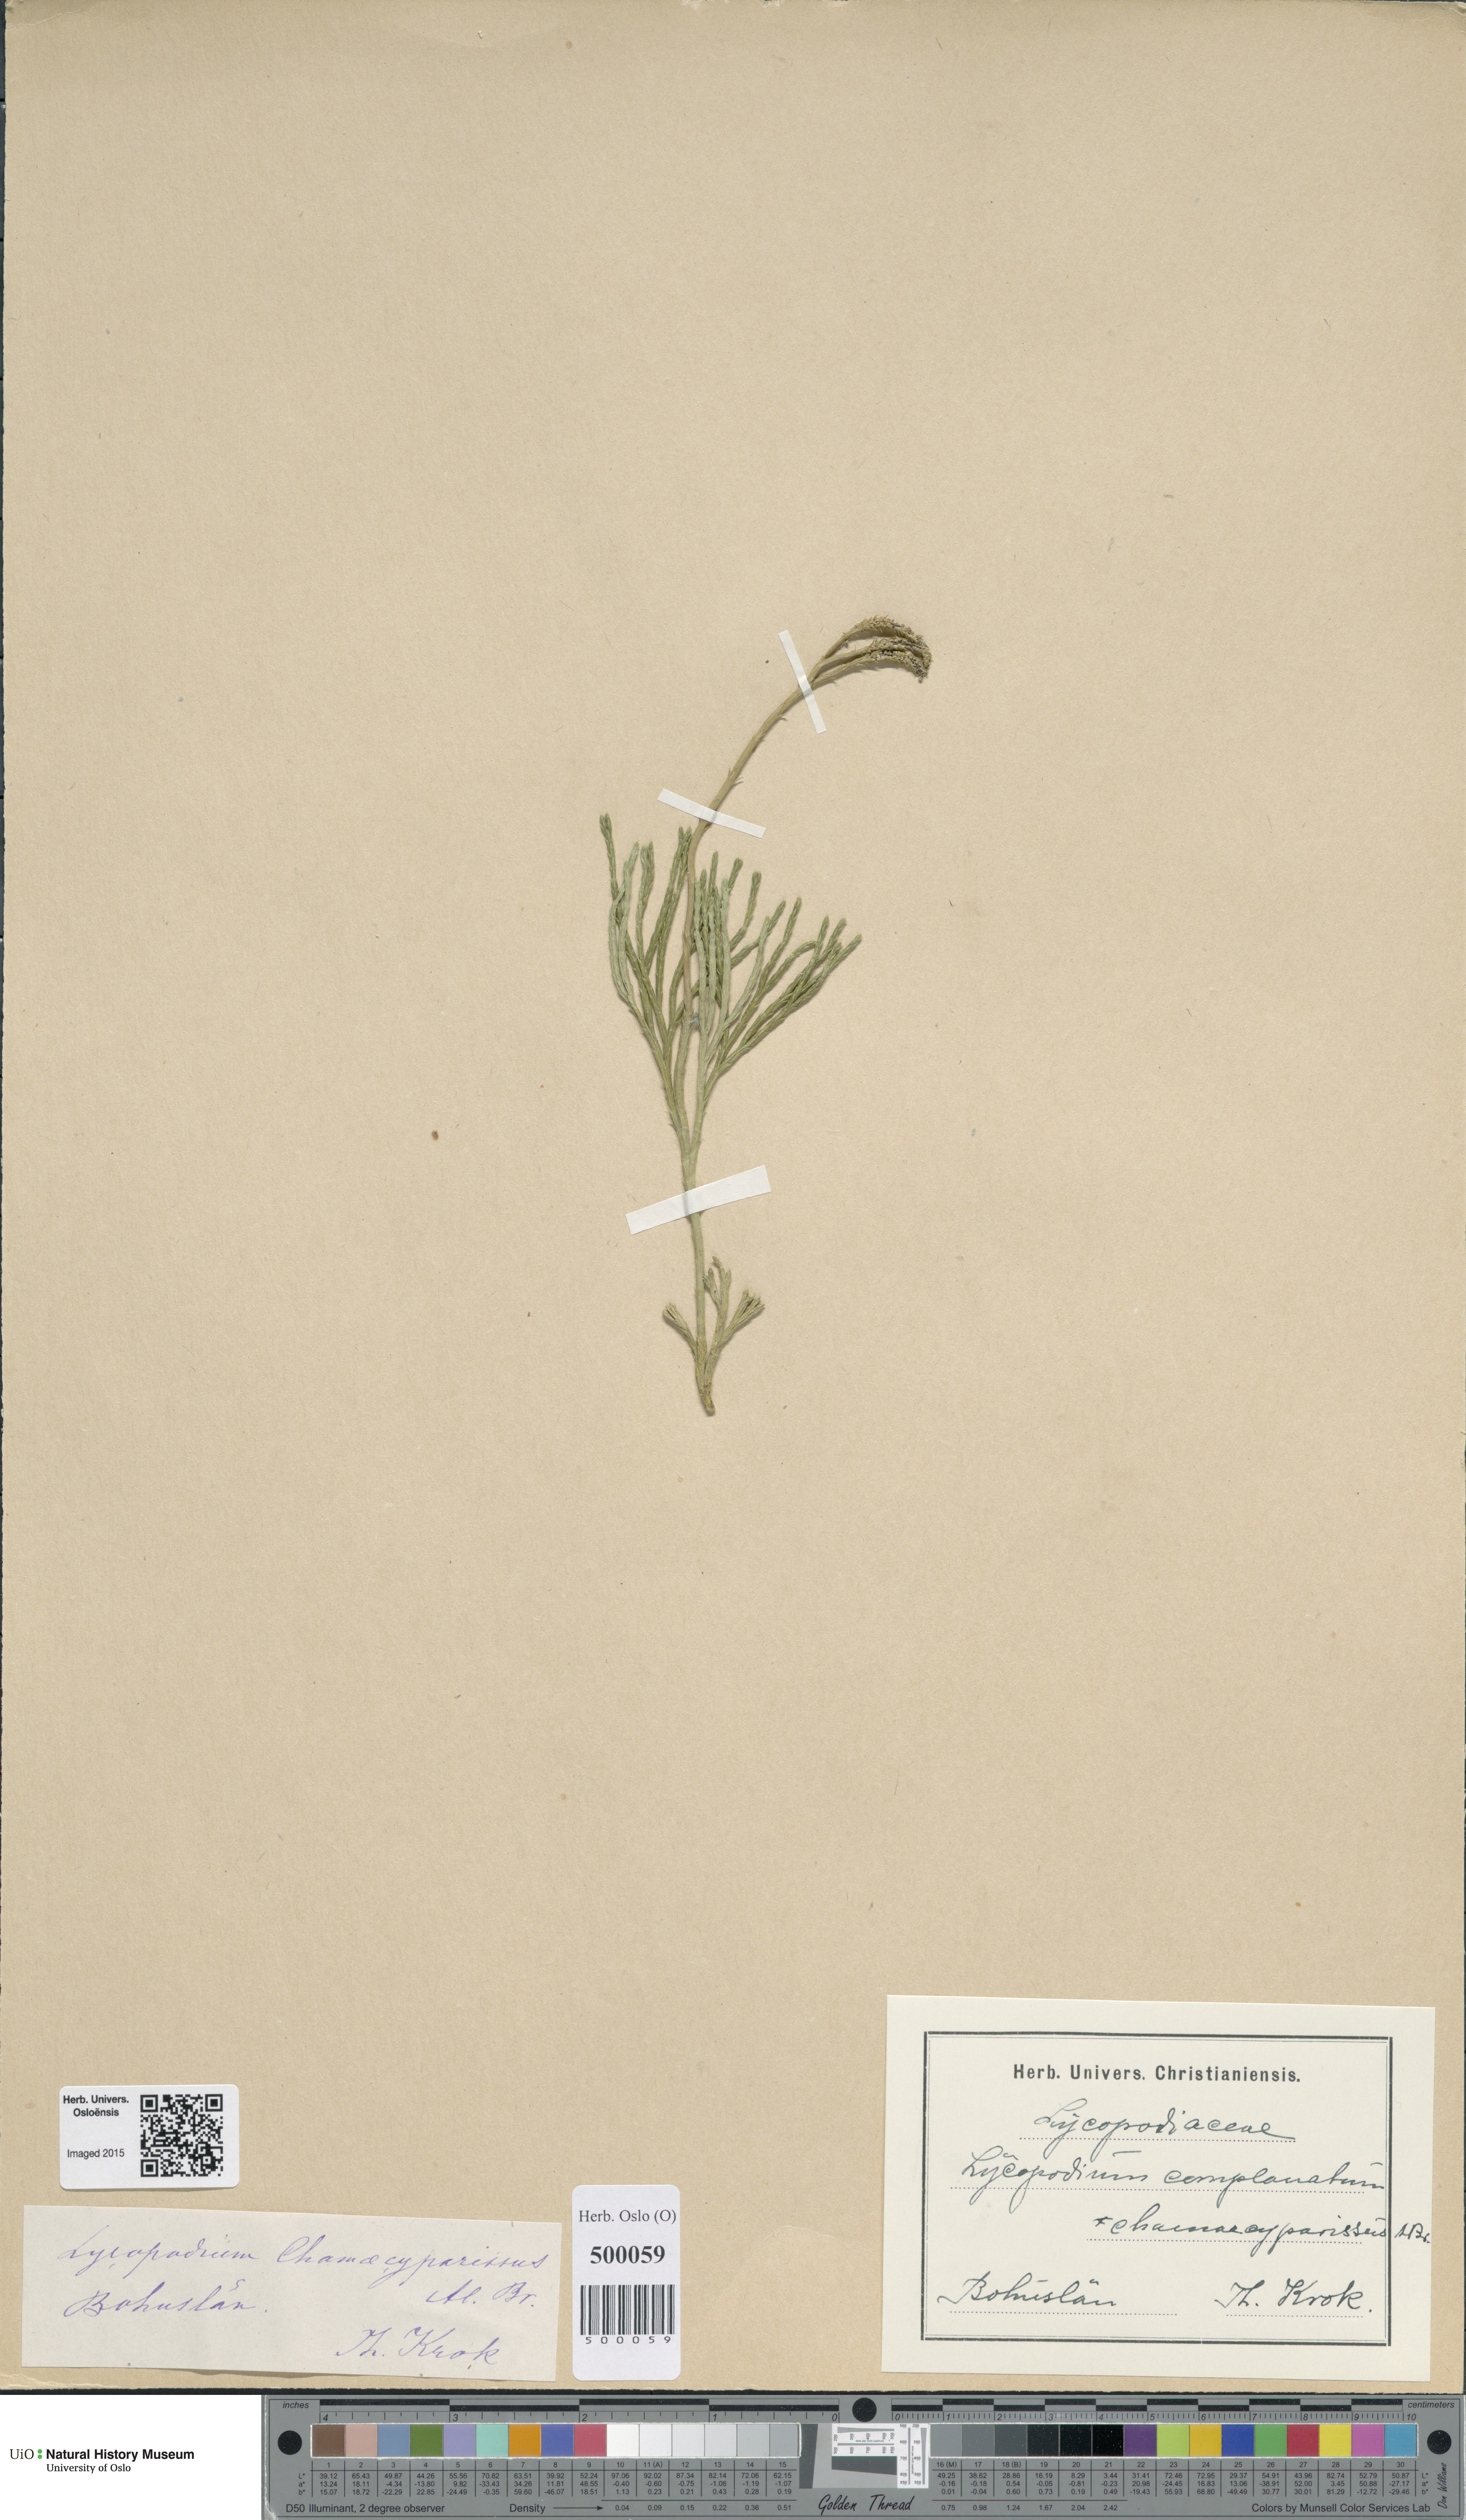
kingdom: Plantae
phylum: Tracheophyta
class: Lycopodiopsida
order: Lycopodiales
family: Lycopodiaceae
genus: Diphasiastrum
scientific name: Diphasiastrum tristachyum
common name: Blue ground-cedar
